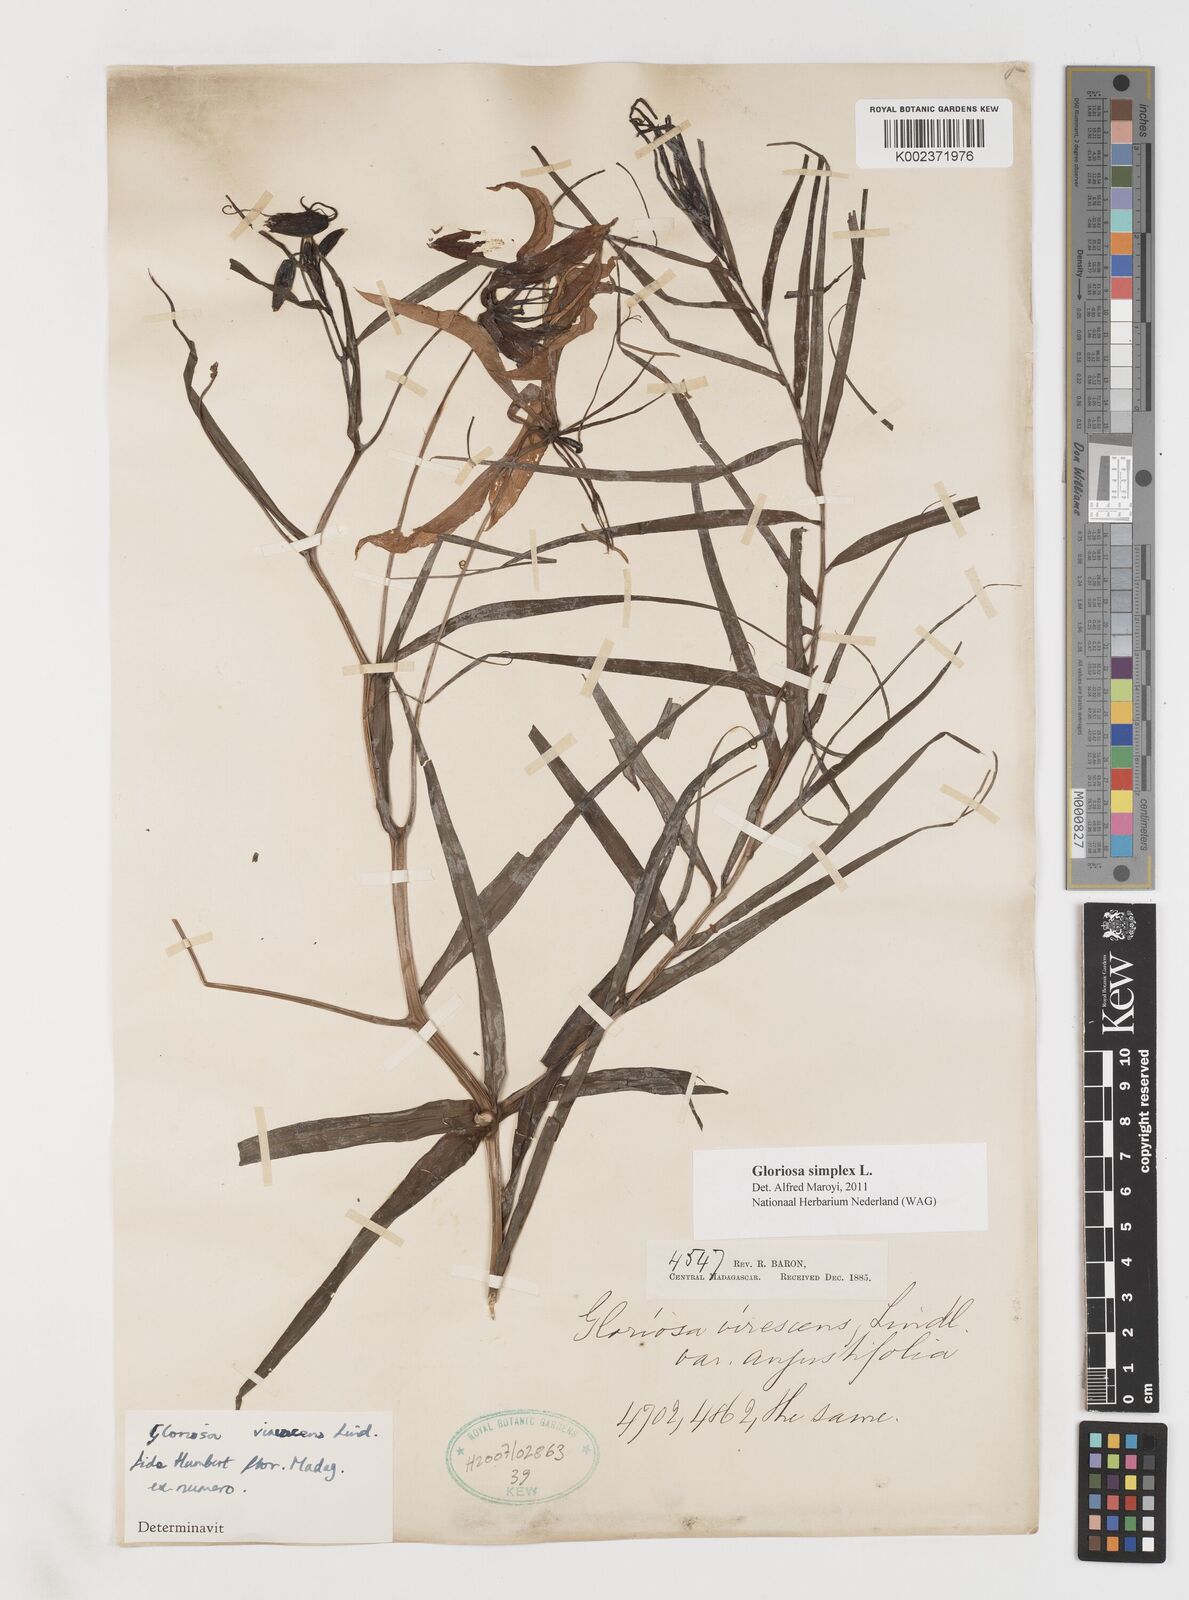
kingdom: Plantae
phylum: Tracheophyta
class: Liliopsida
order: Liliales
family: Colchicaceae
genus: Gloriosa
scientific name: Gloriosa simplex
